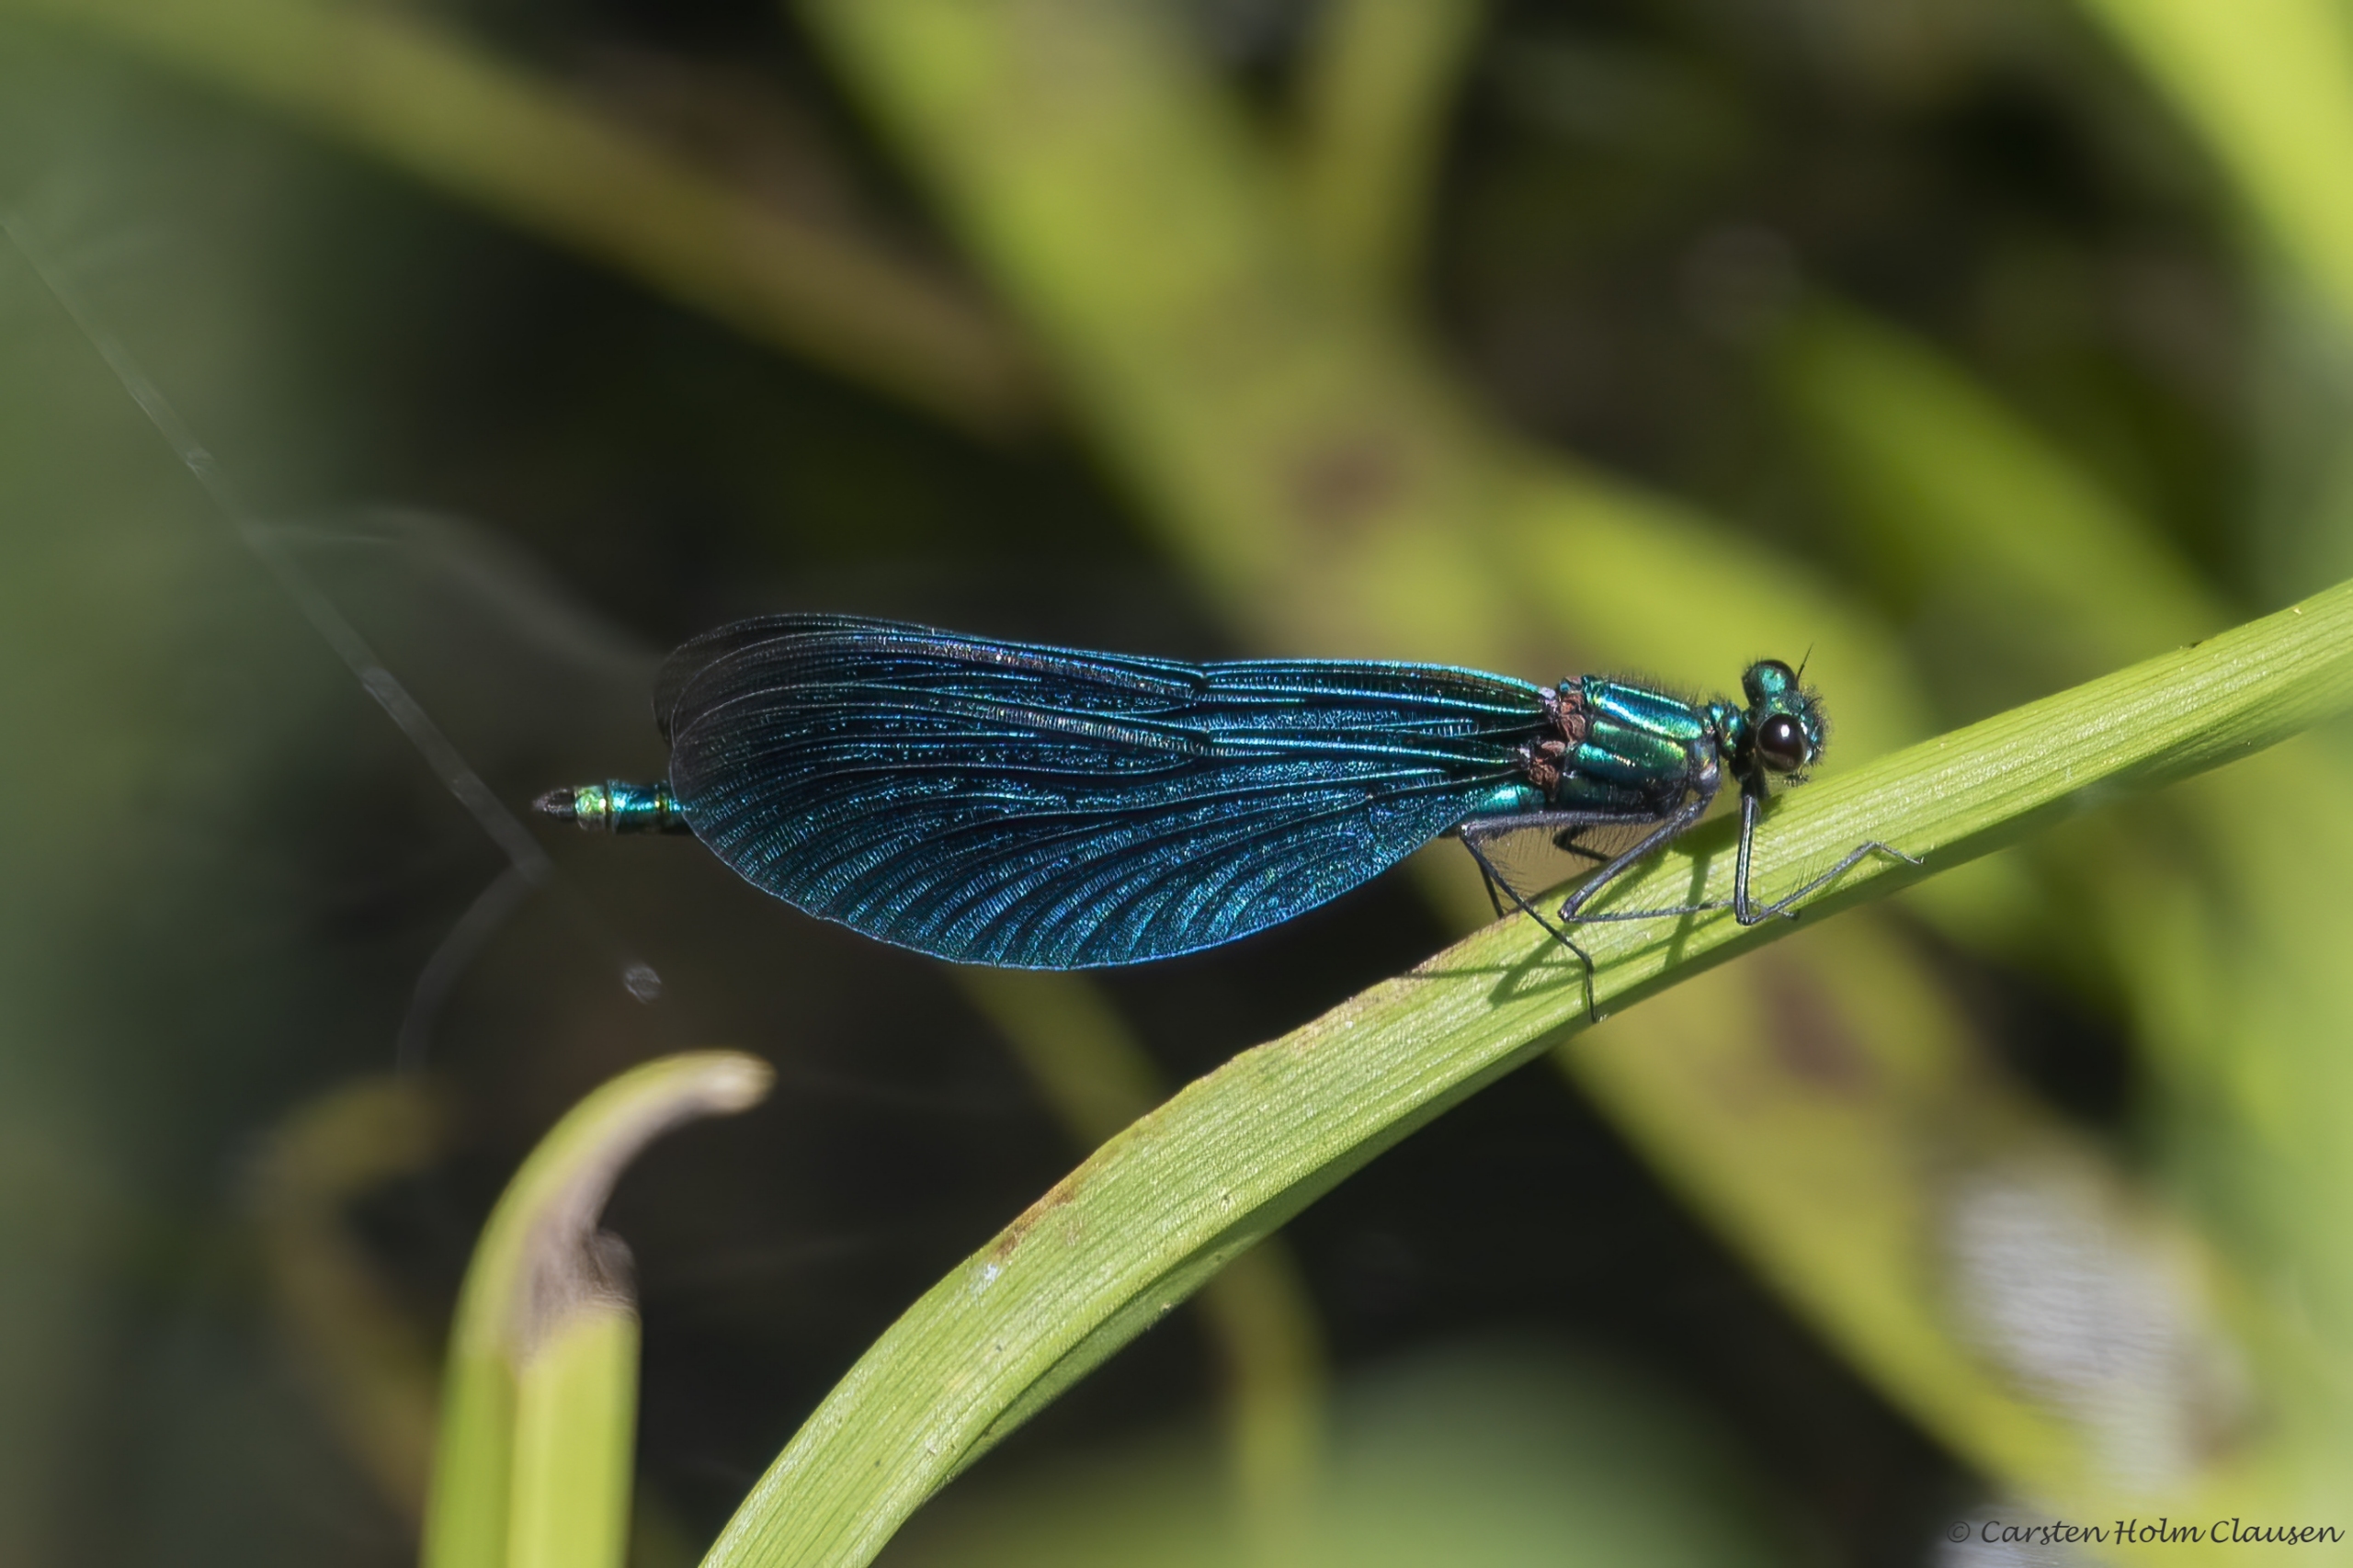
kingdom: Animalia
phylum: Arthropoda
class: Insecta
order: Odonata
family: Calopterygidae
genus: Calopteryx
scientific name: Calopteryx virgo
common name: Blåvinget pragtvandnymfe
